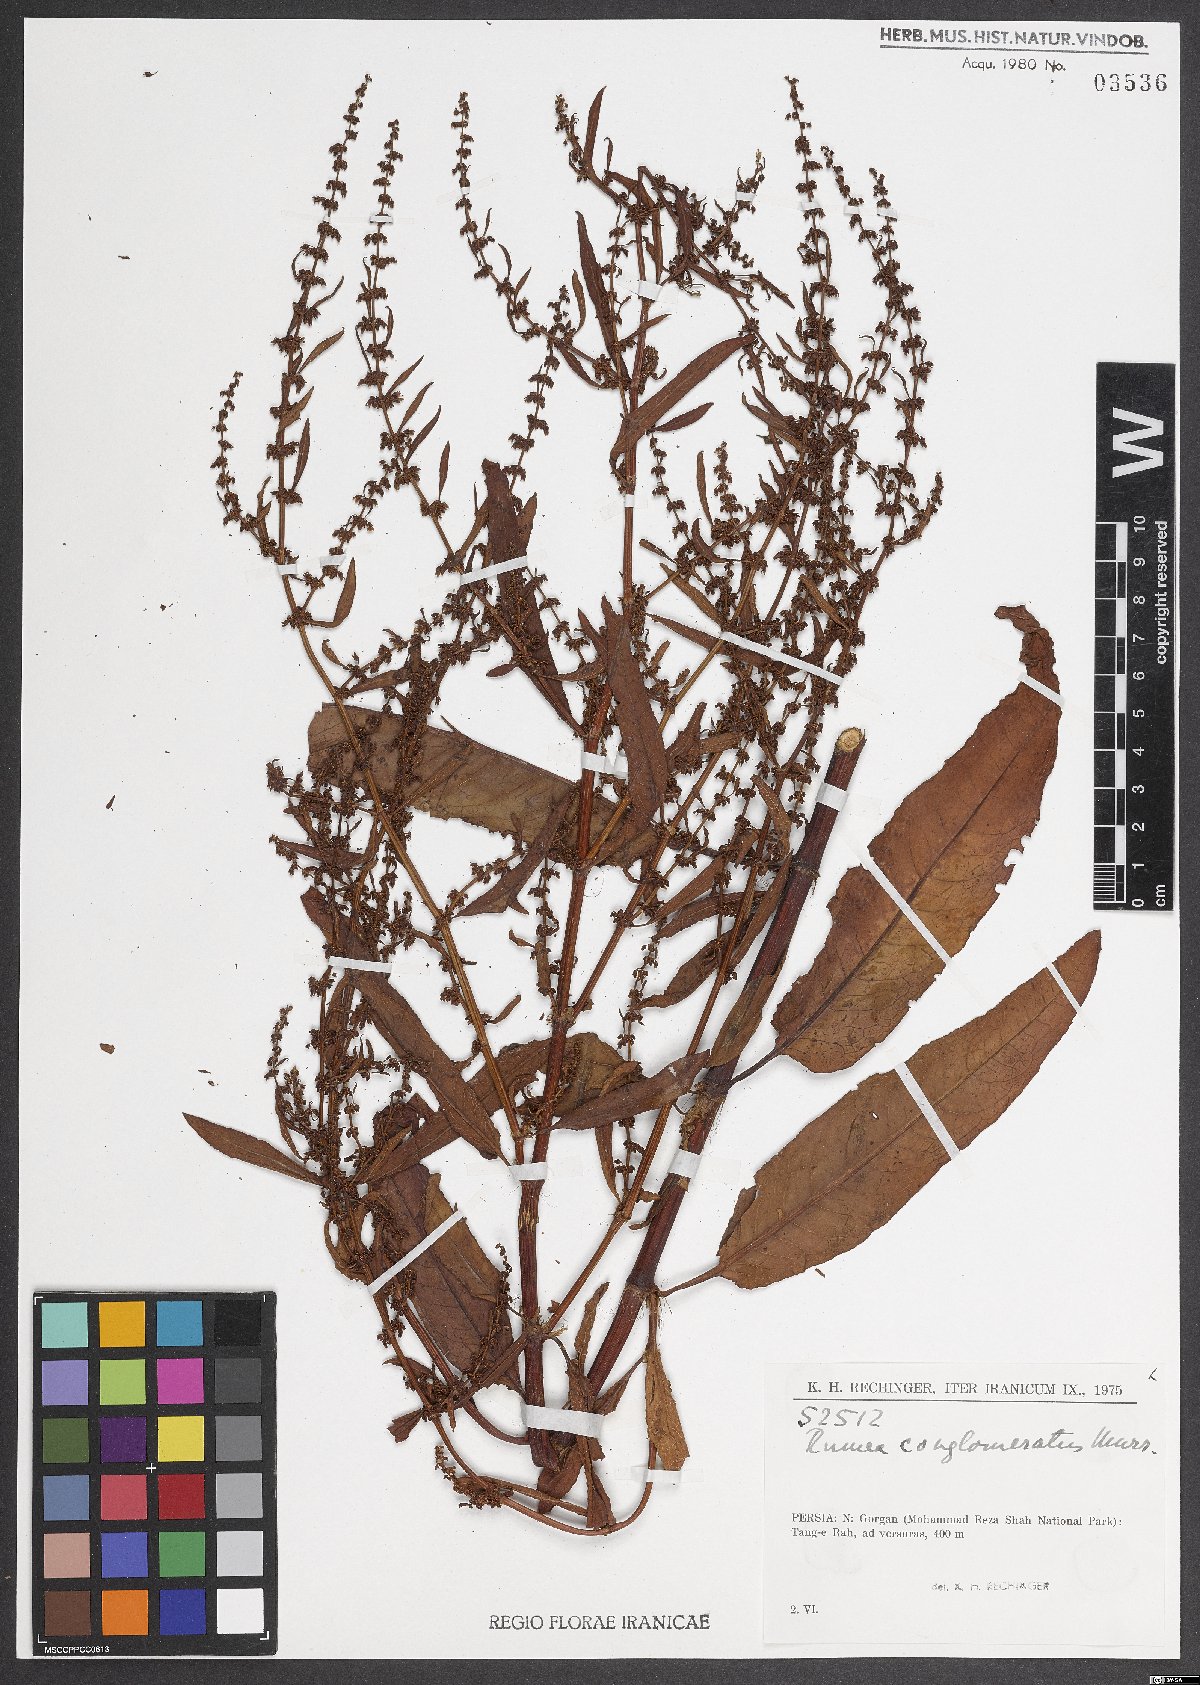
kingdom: Plantae
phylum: Tracheophyta
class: Magnoliopsida
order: Caryophyllales
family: Polygonaceae
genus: Rumex
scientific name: Rumex conglomeratus
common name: Clustered dock
